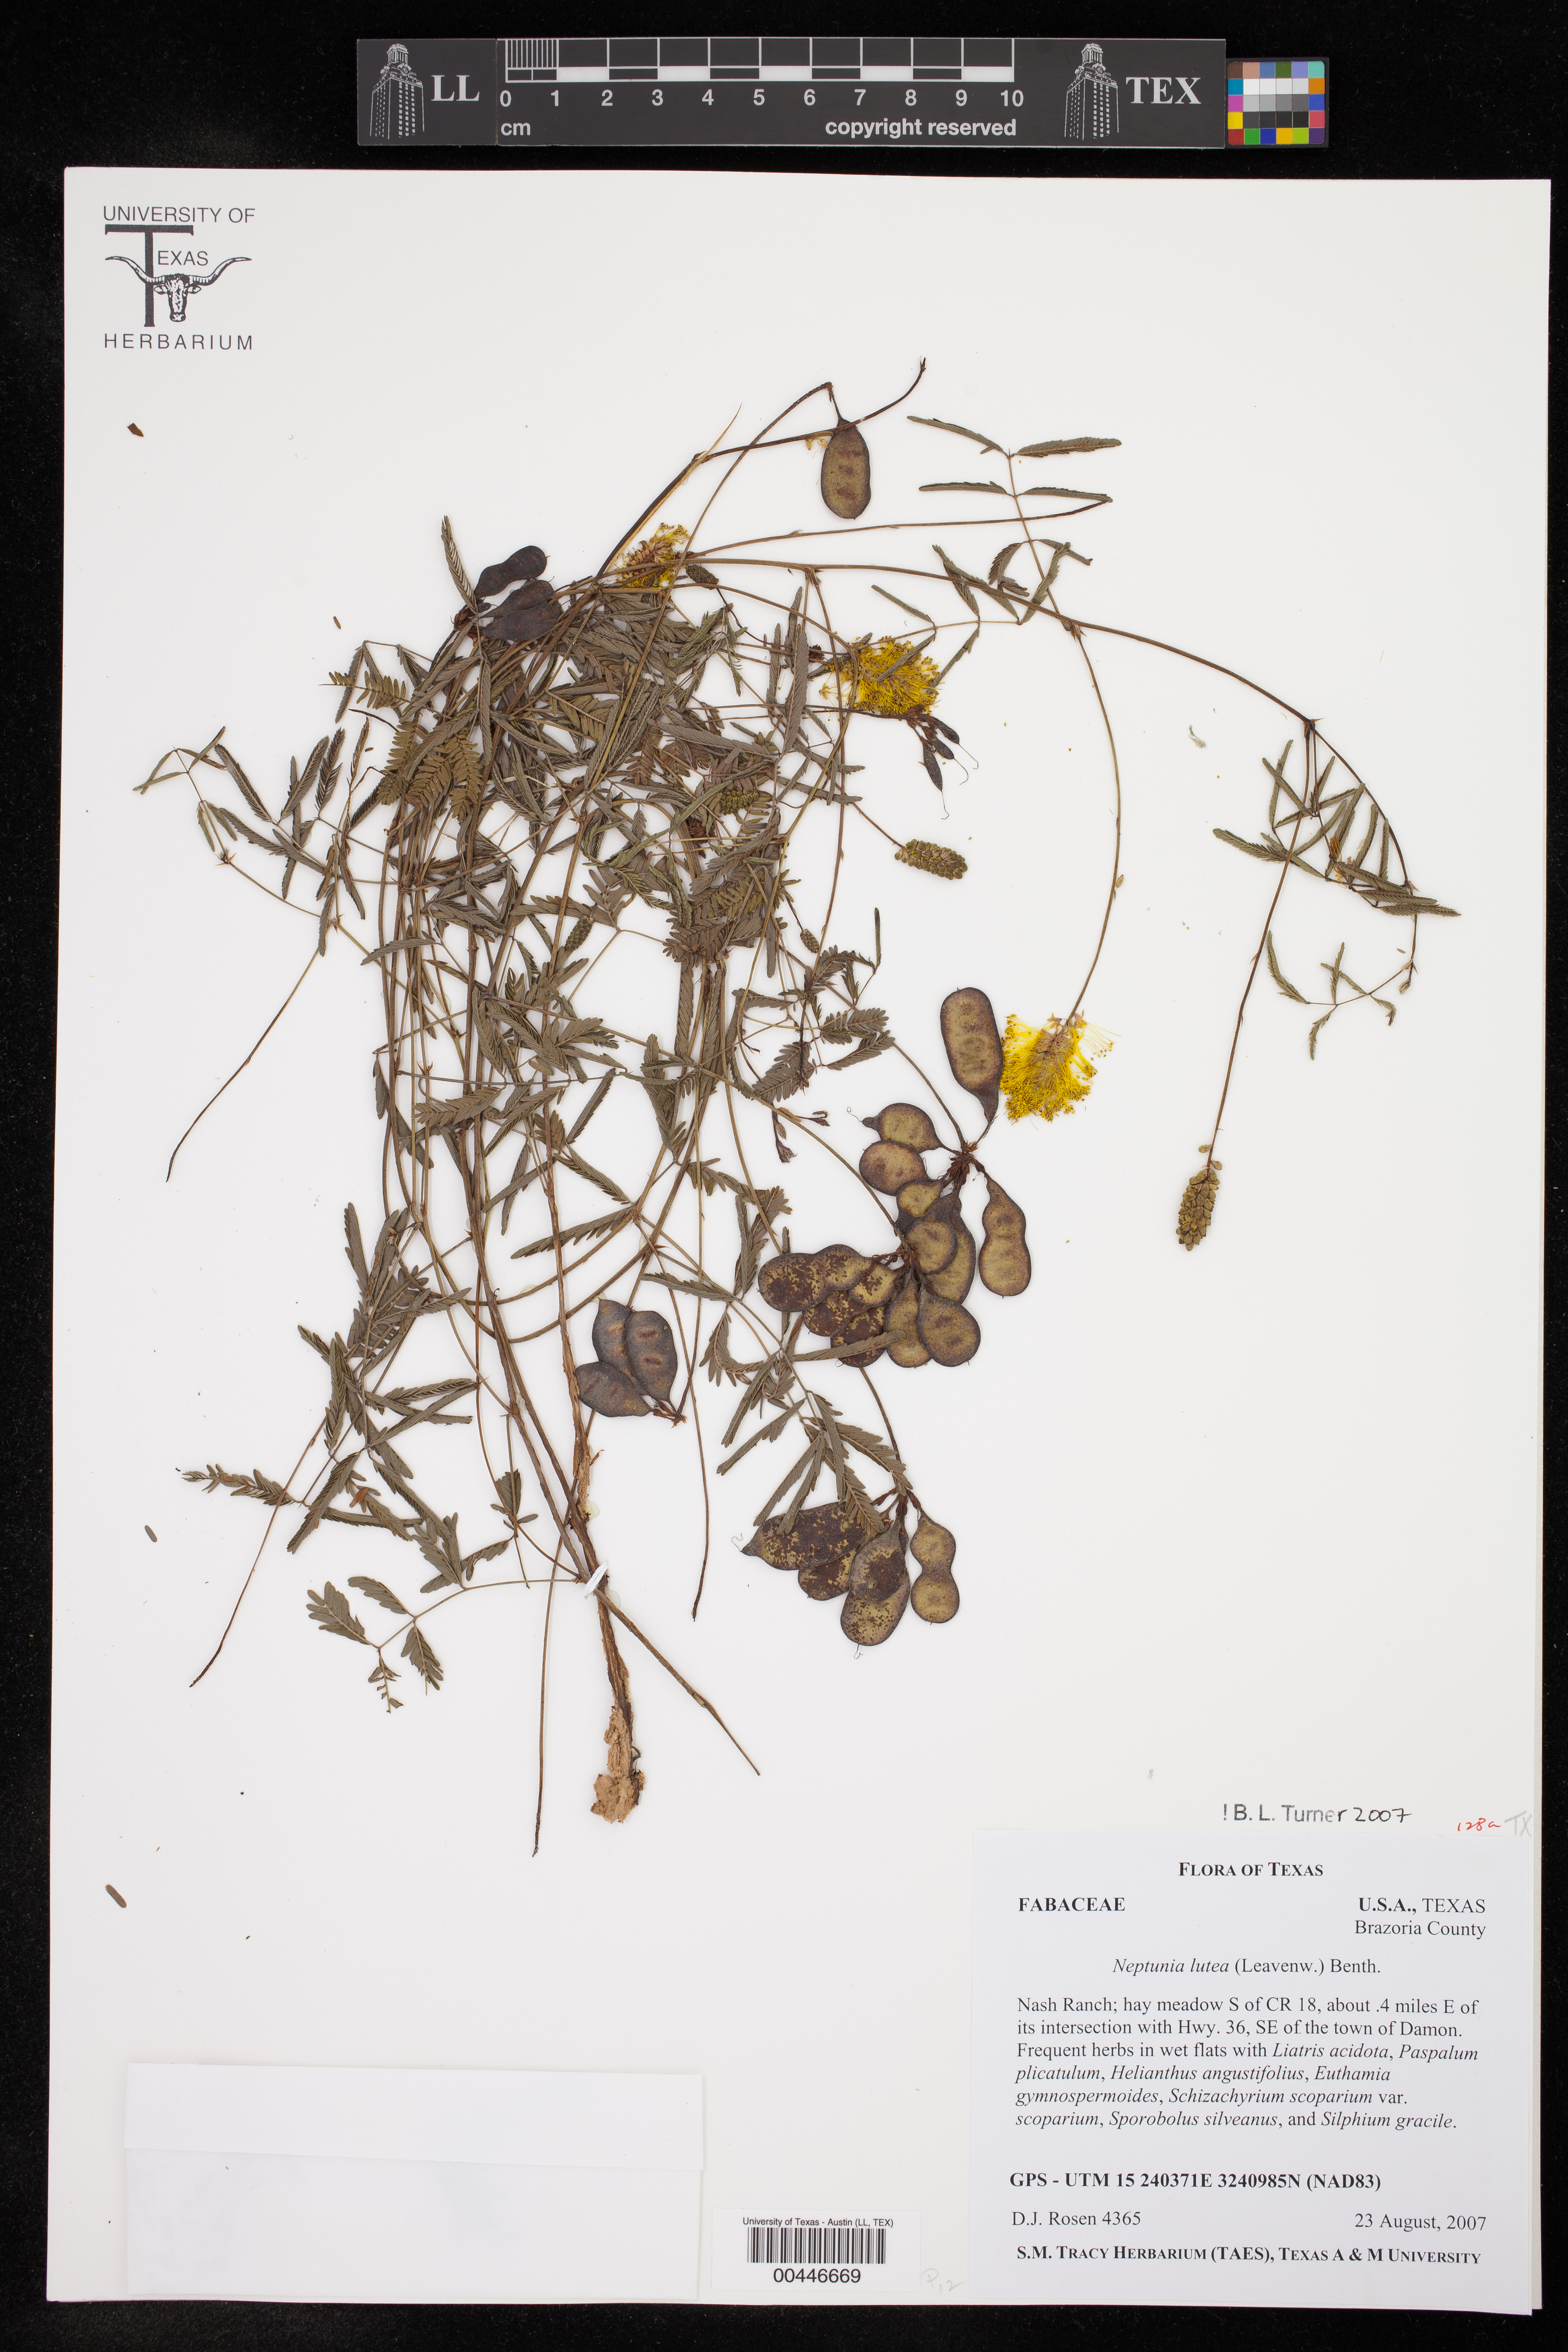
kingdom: Plantae
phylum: Tracheophyta
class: Magnoliopsida
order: Fabales
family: Fabaceae
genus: Neptunia
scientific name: Neptunia lutea
